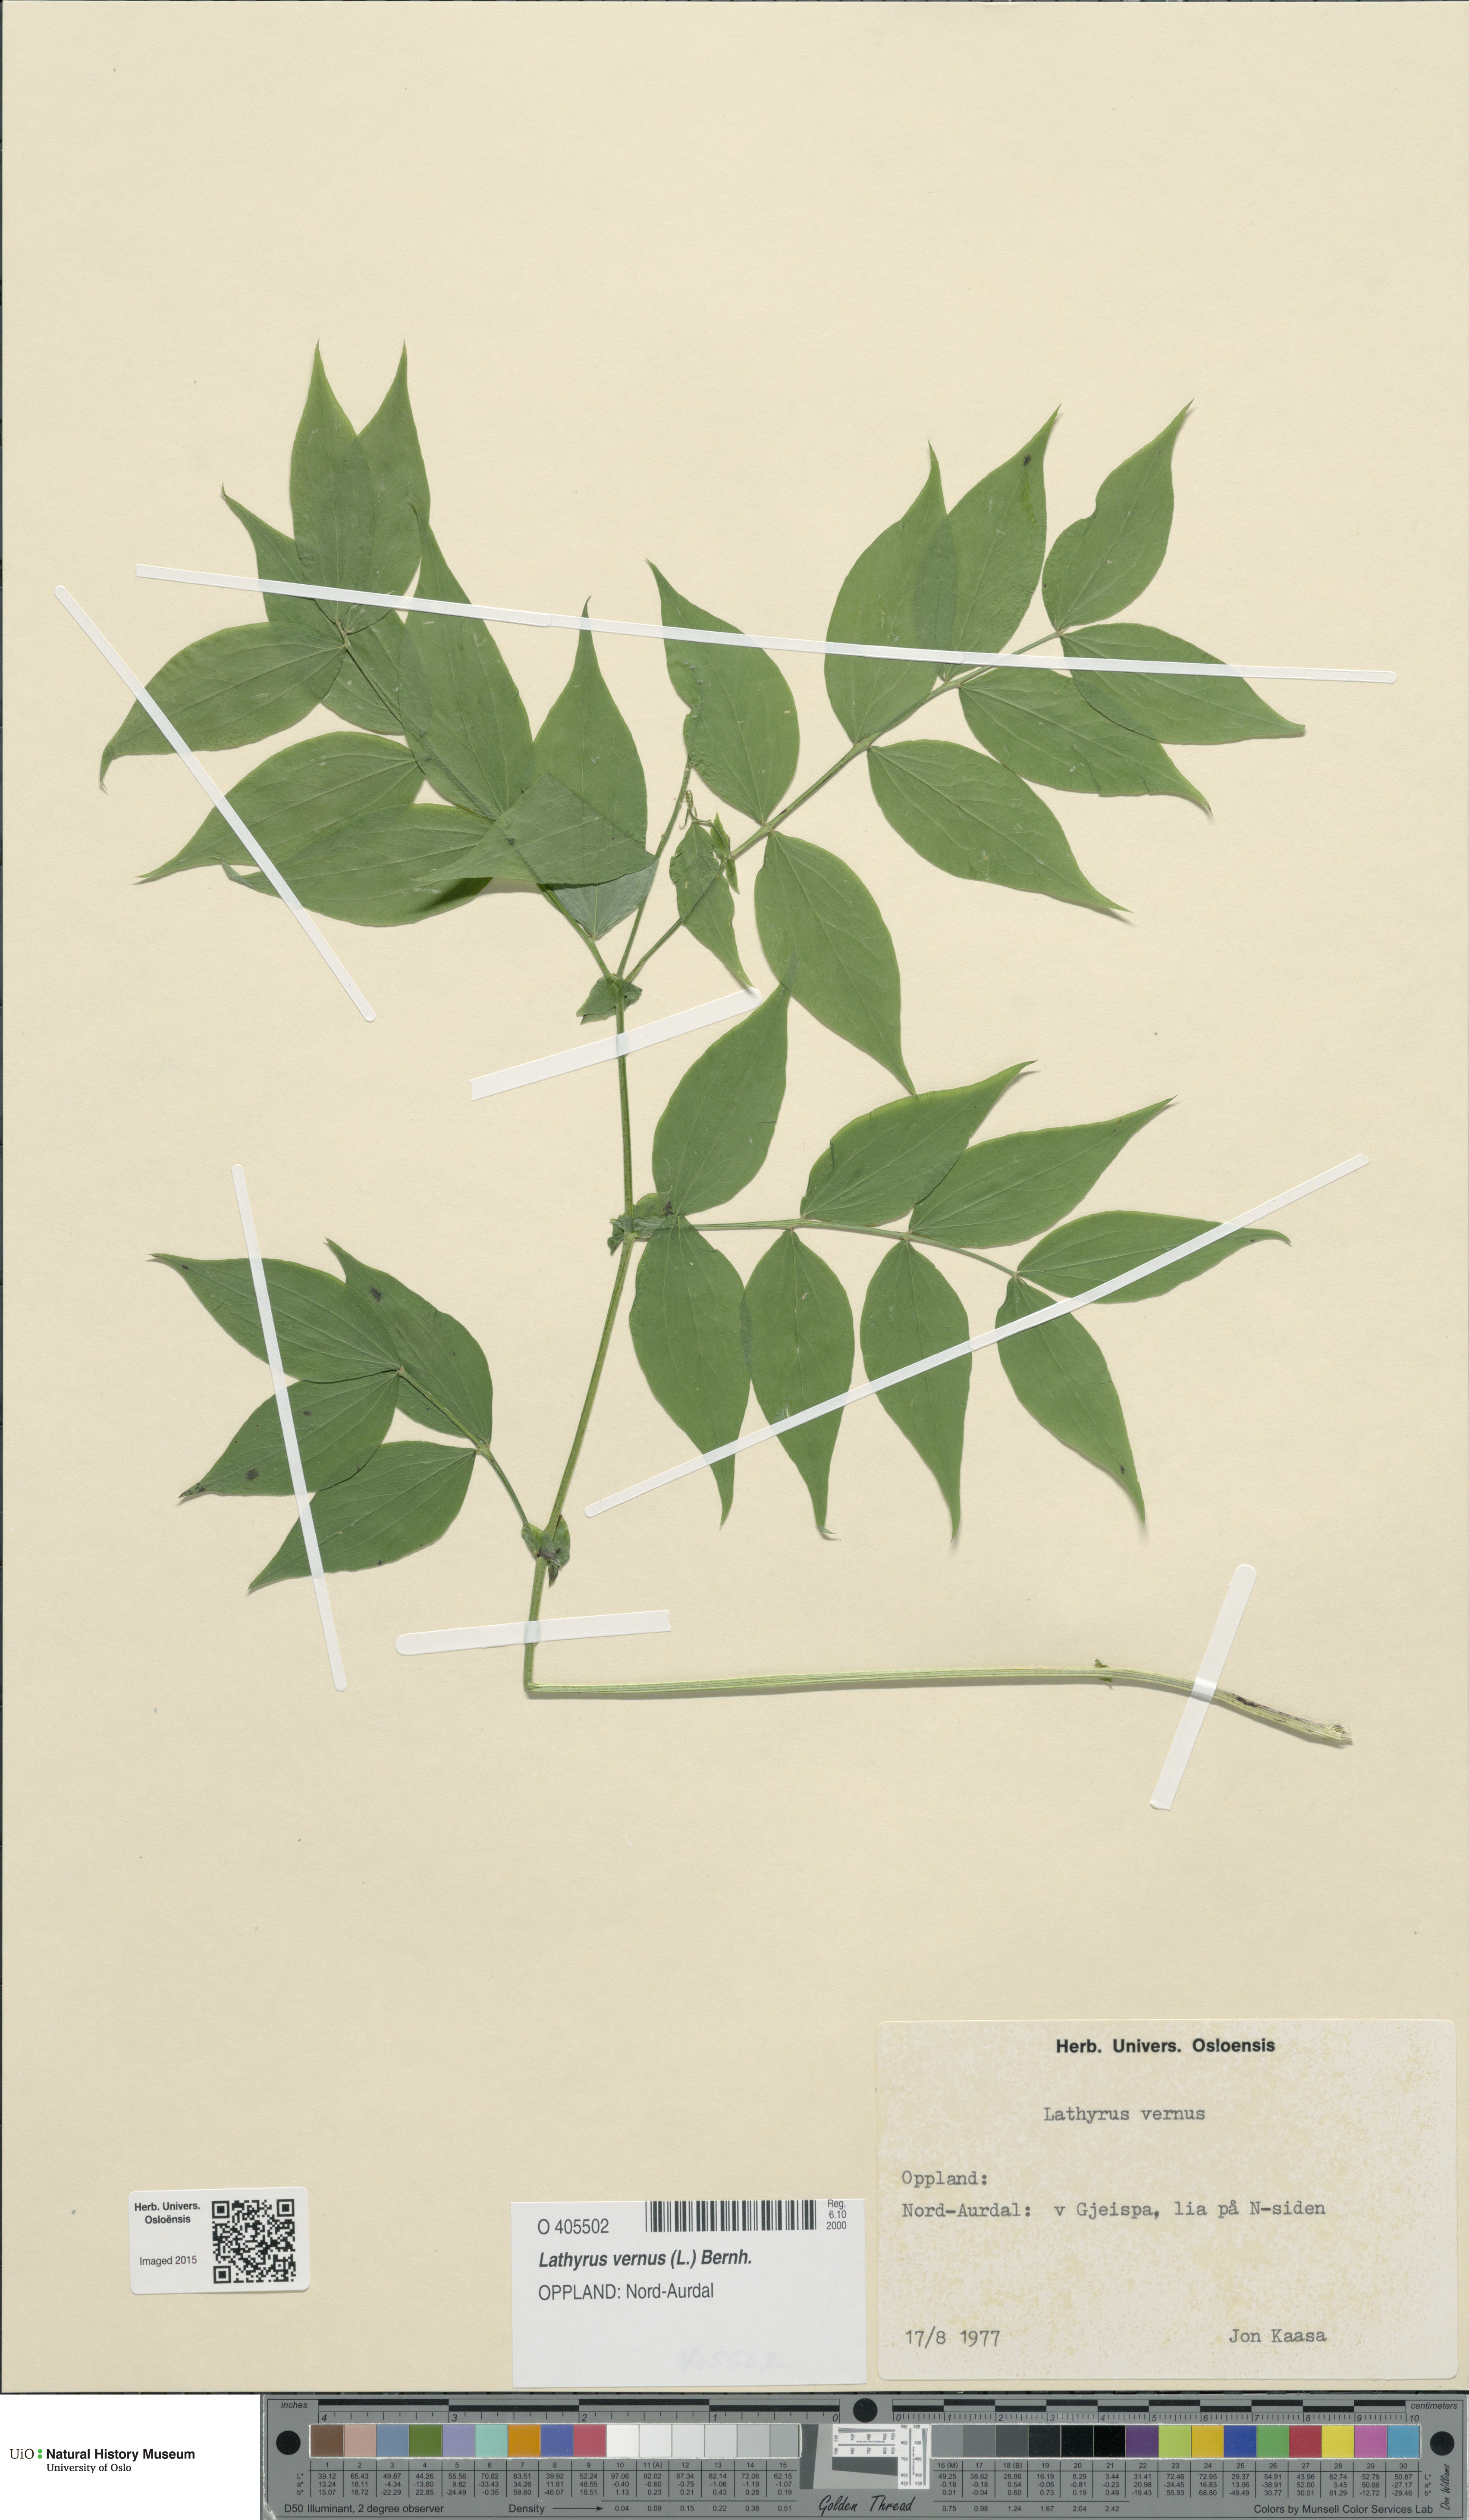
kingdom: Plantae
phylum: Tracheophyta
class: Magnoliopsida
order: Fabales
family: Fabaceae
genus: Lathyrus
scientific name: Lathyrus vernus
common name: Spring pea
